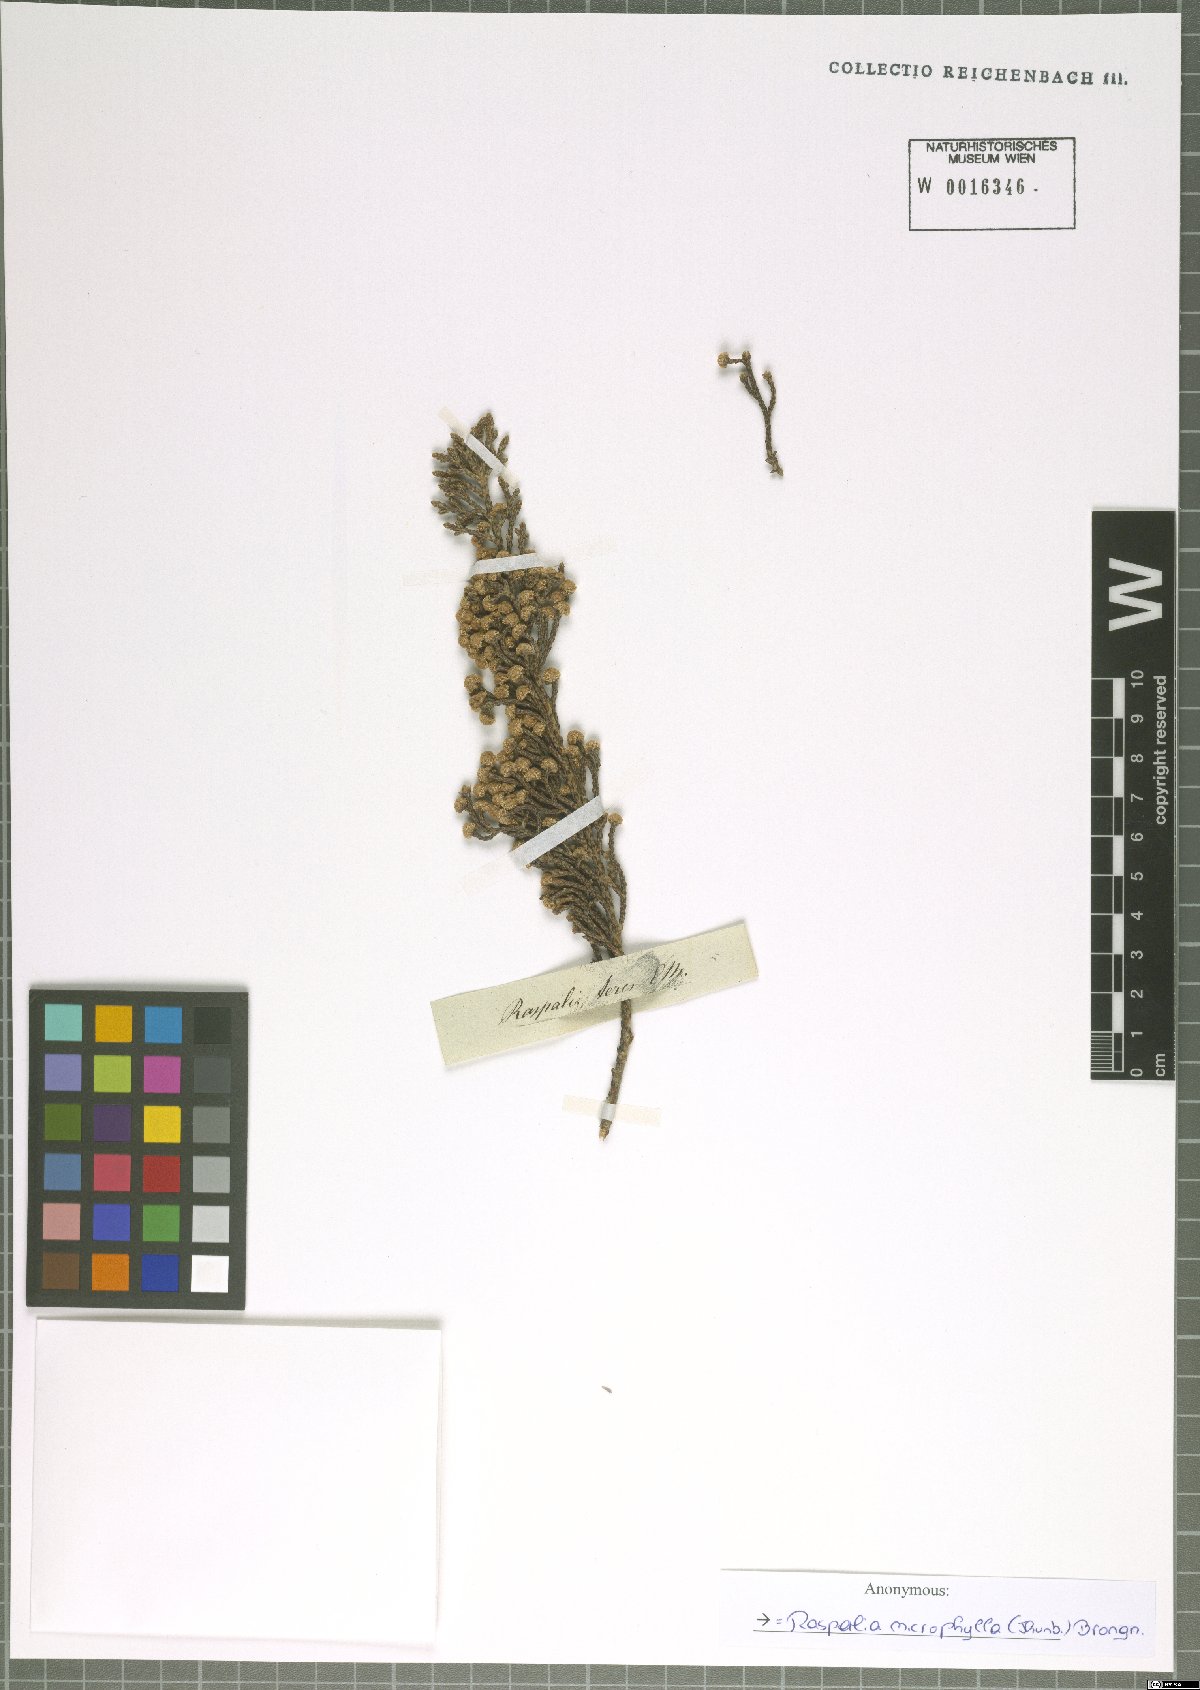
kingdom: Plantae
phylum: Tracheophyta
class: Magnoliopsida
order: Bruniales
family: Bruniaceae
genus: Brunia
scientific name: Brunia microphylla
